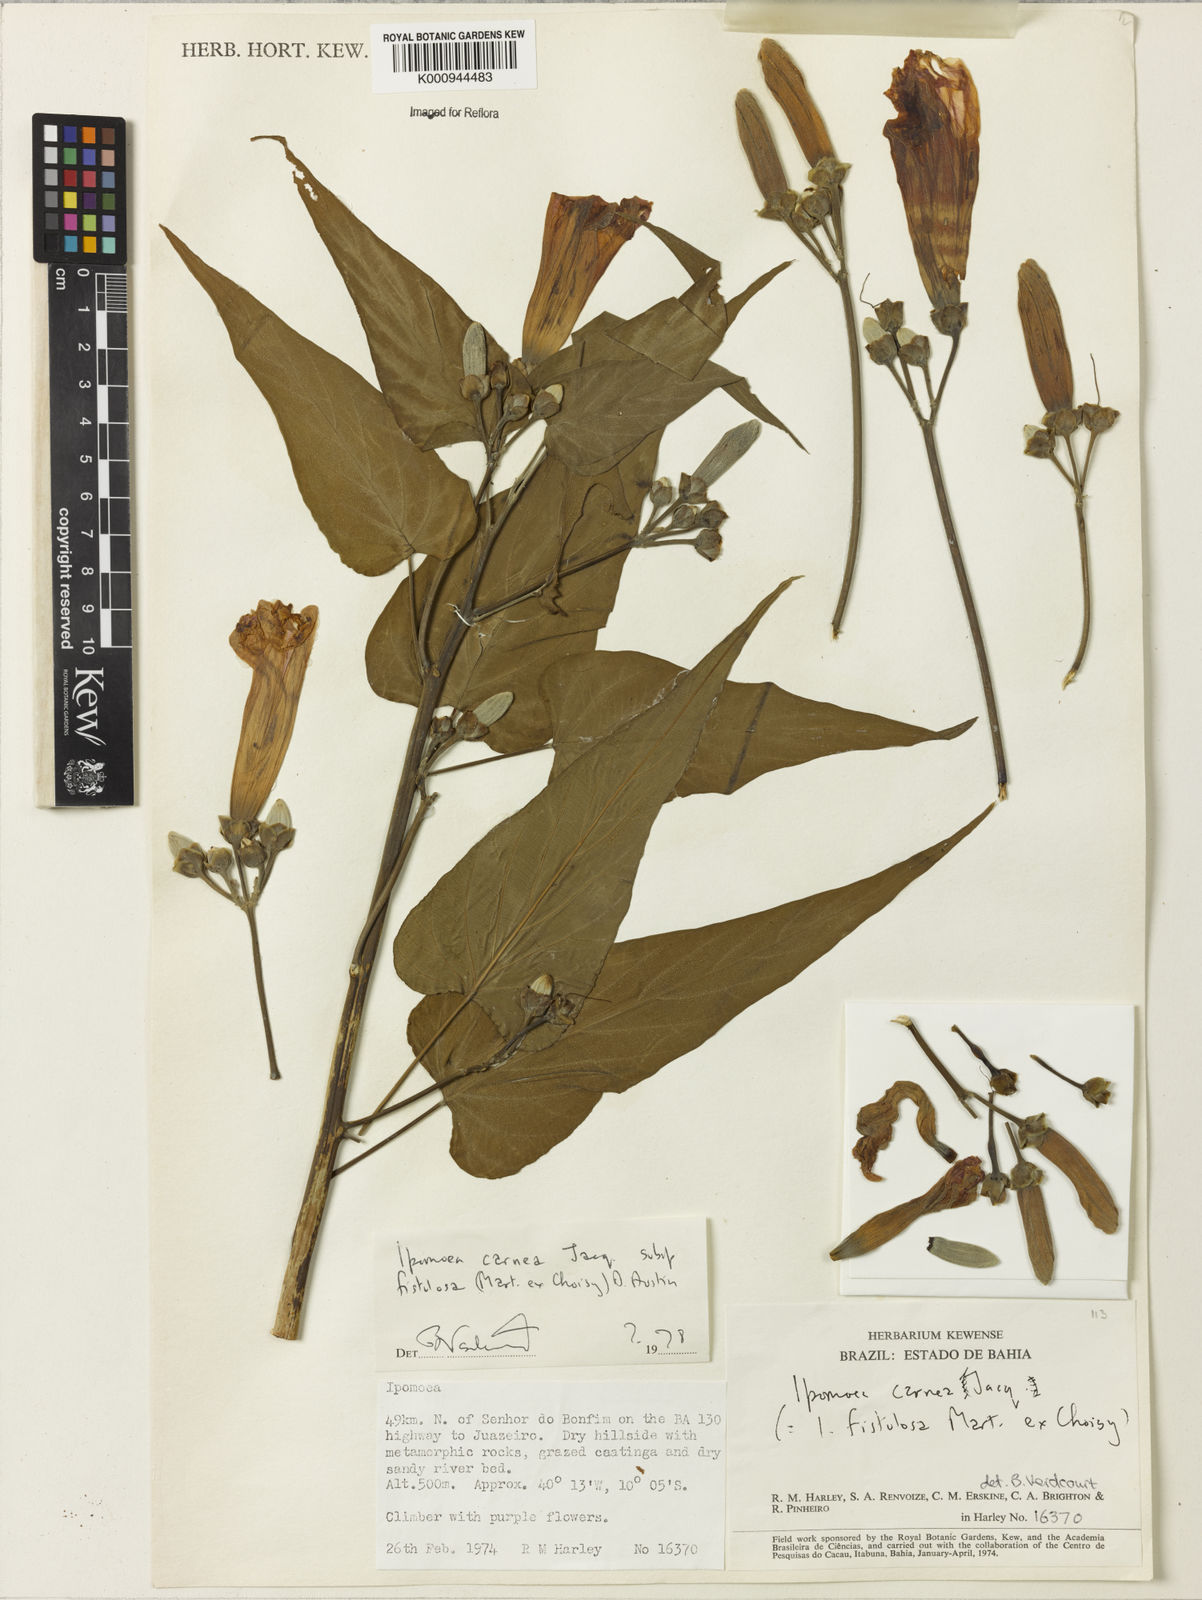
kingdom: Plantae
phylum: Tracheophyta
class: Magnoliopsida
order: Solanales
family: Convolvulaceae
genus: Ipomoea
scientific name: Ipomoea carnea
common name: Morning-glory
